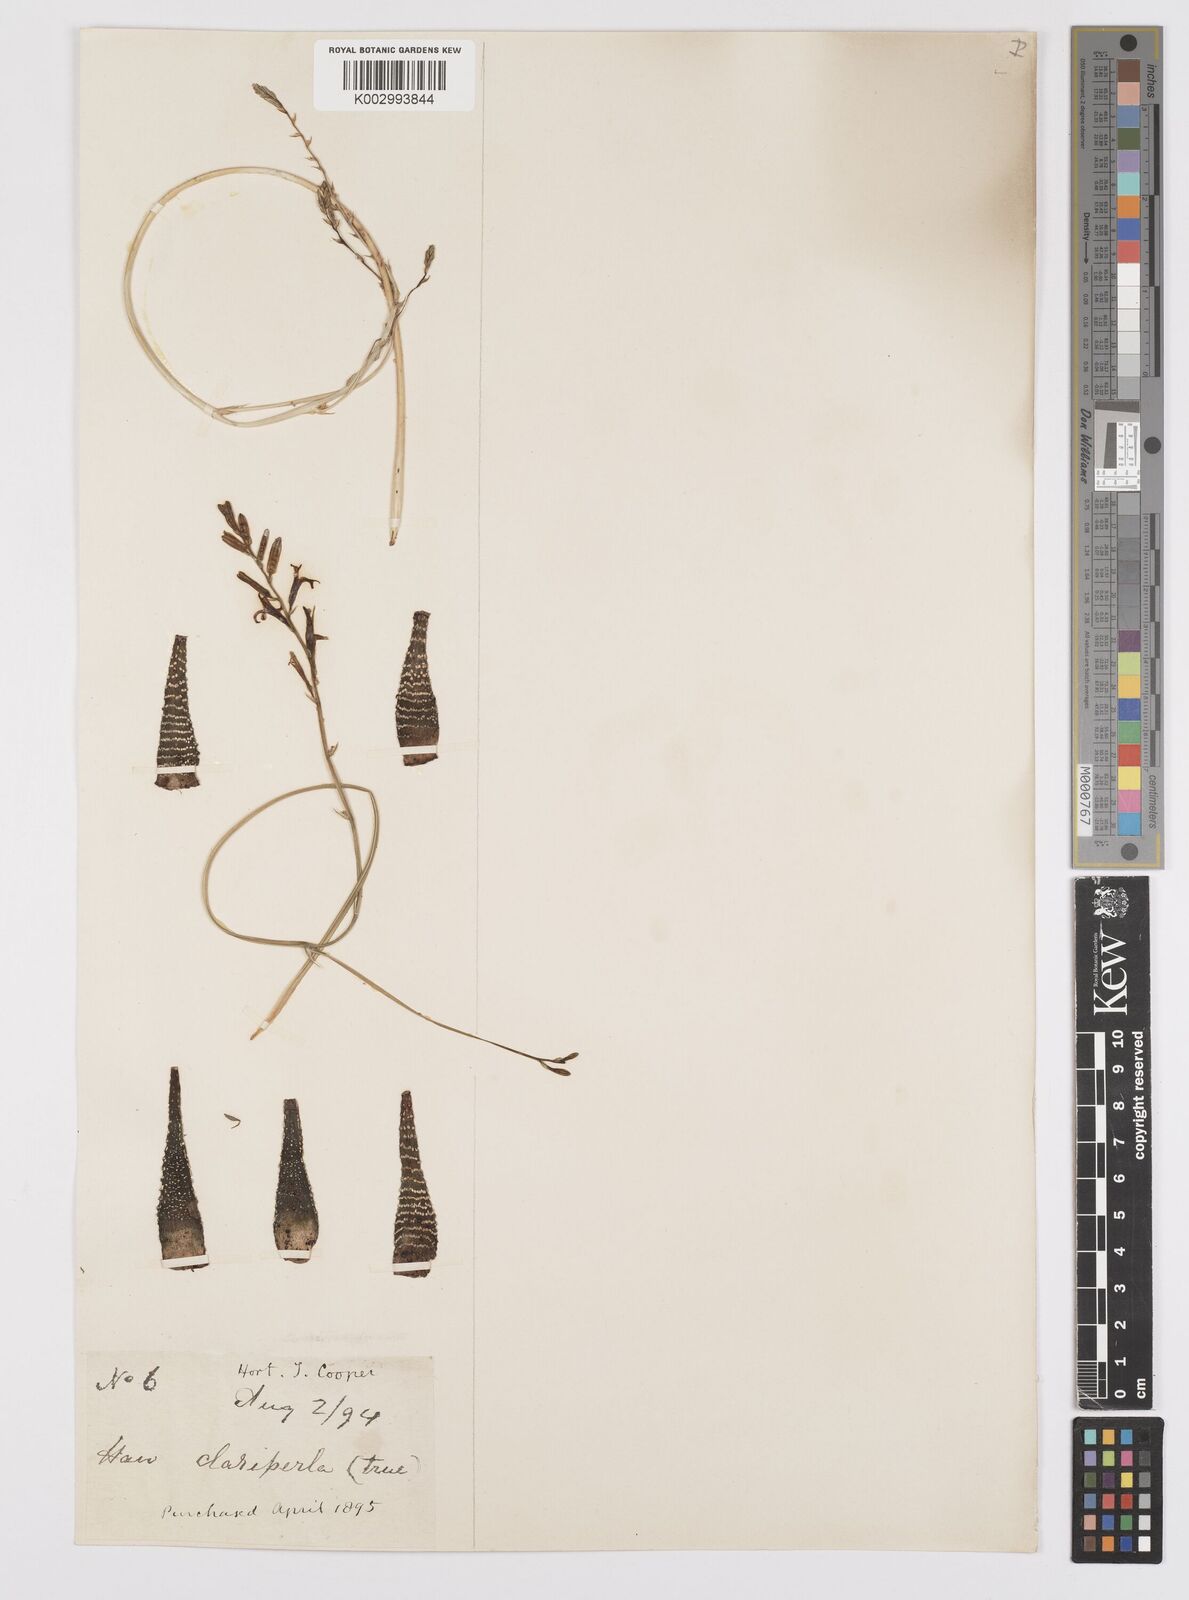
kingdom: Plantae
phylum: Tracheophyta
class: Liliopsida
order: Asparagales
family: Asphodelaceae
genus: Haworthiopsis
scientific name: Haworthiopsis attenuata
